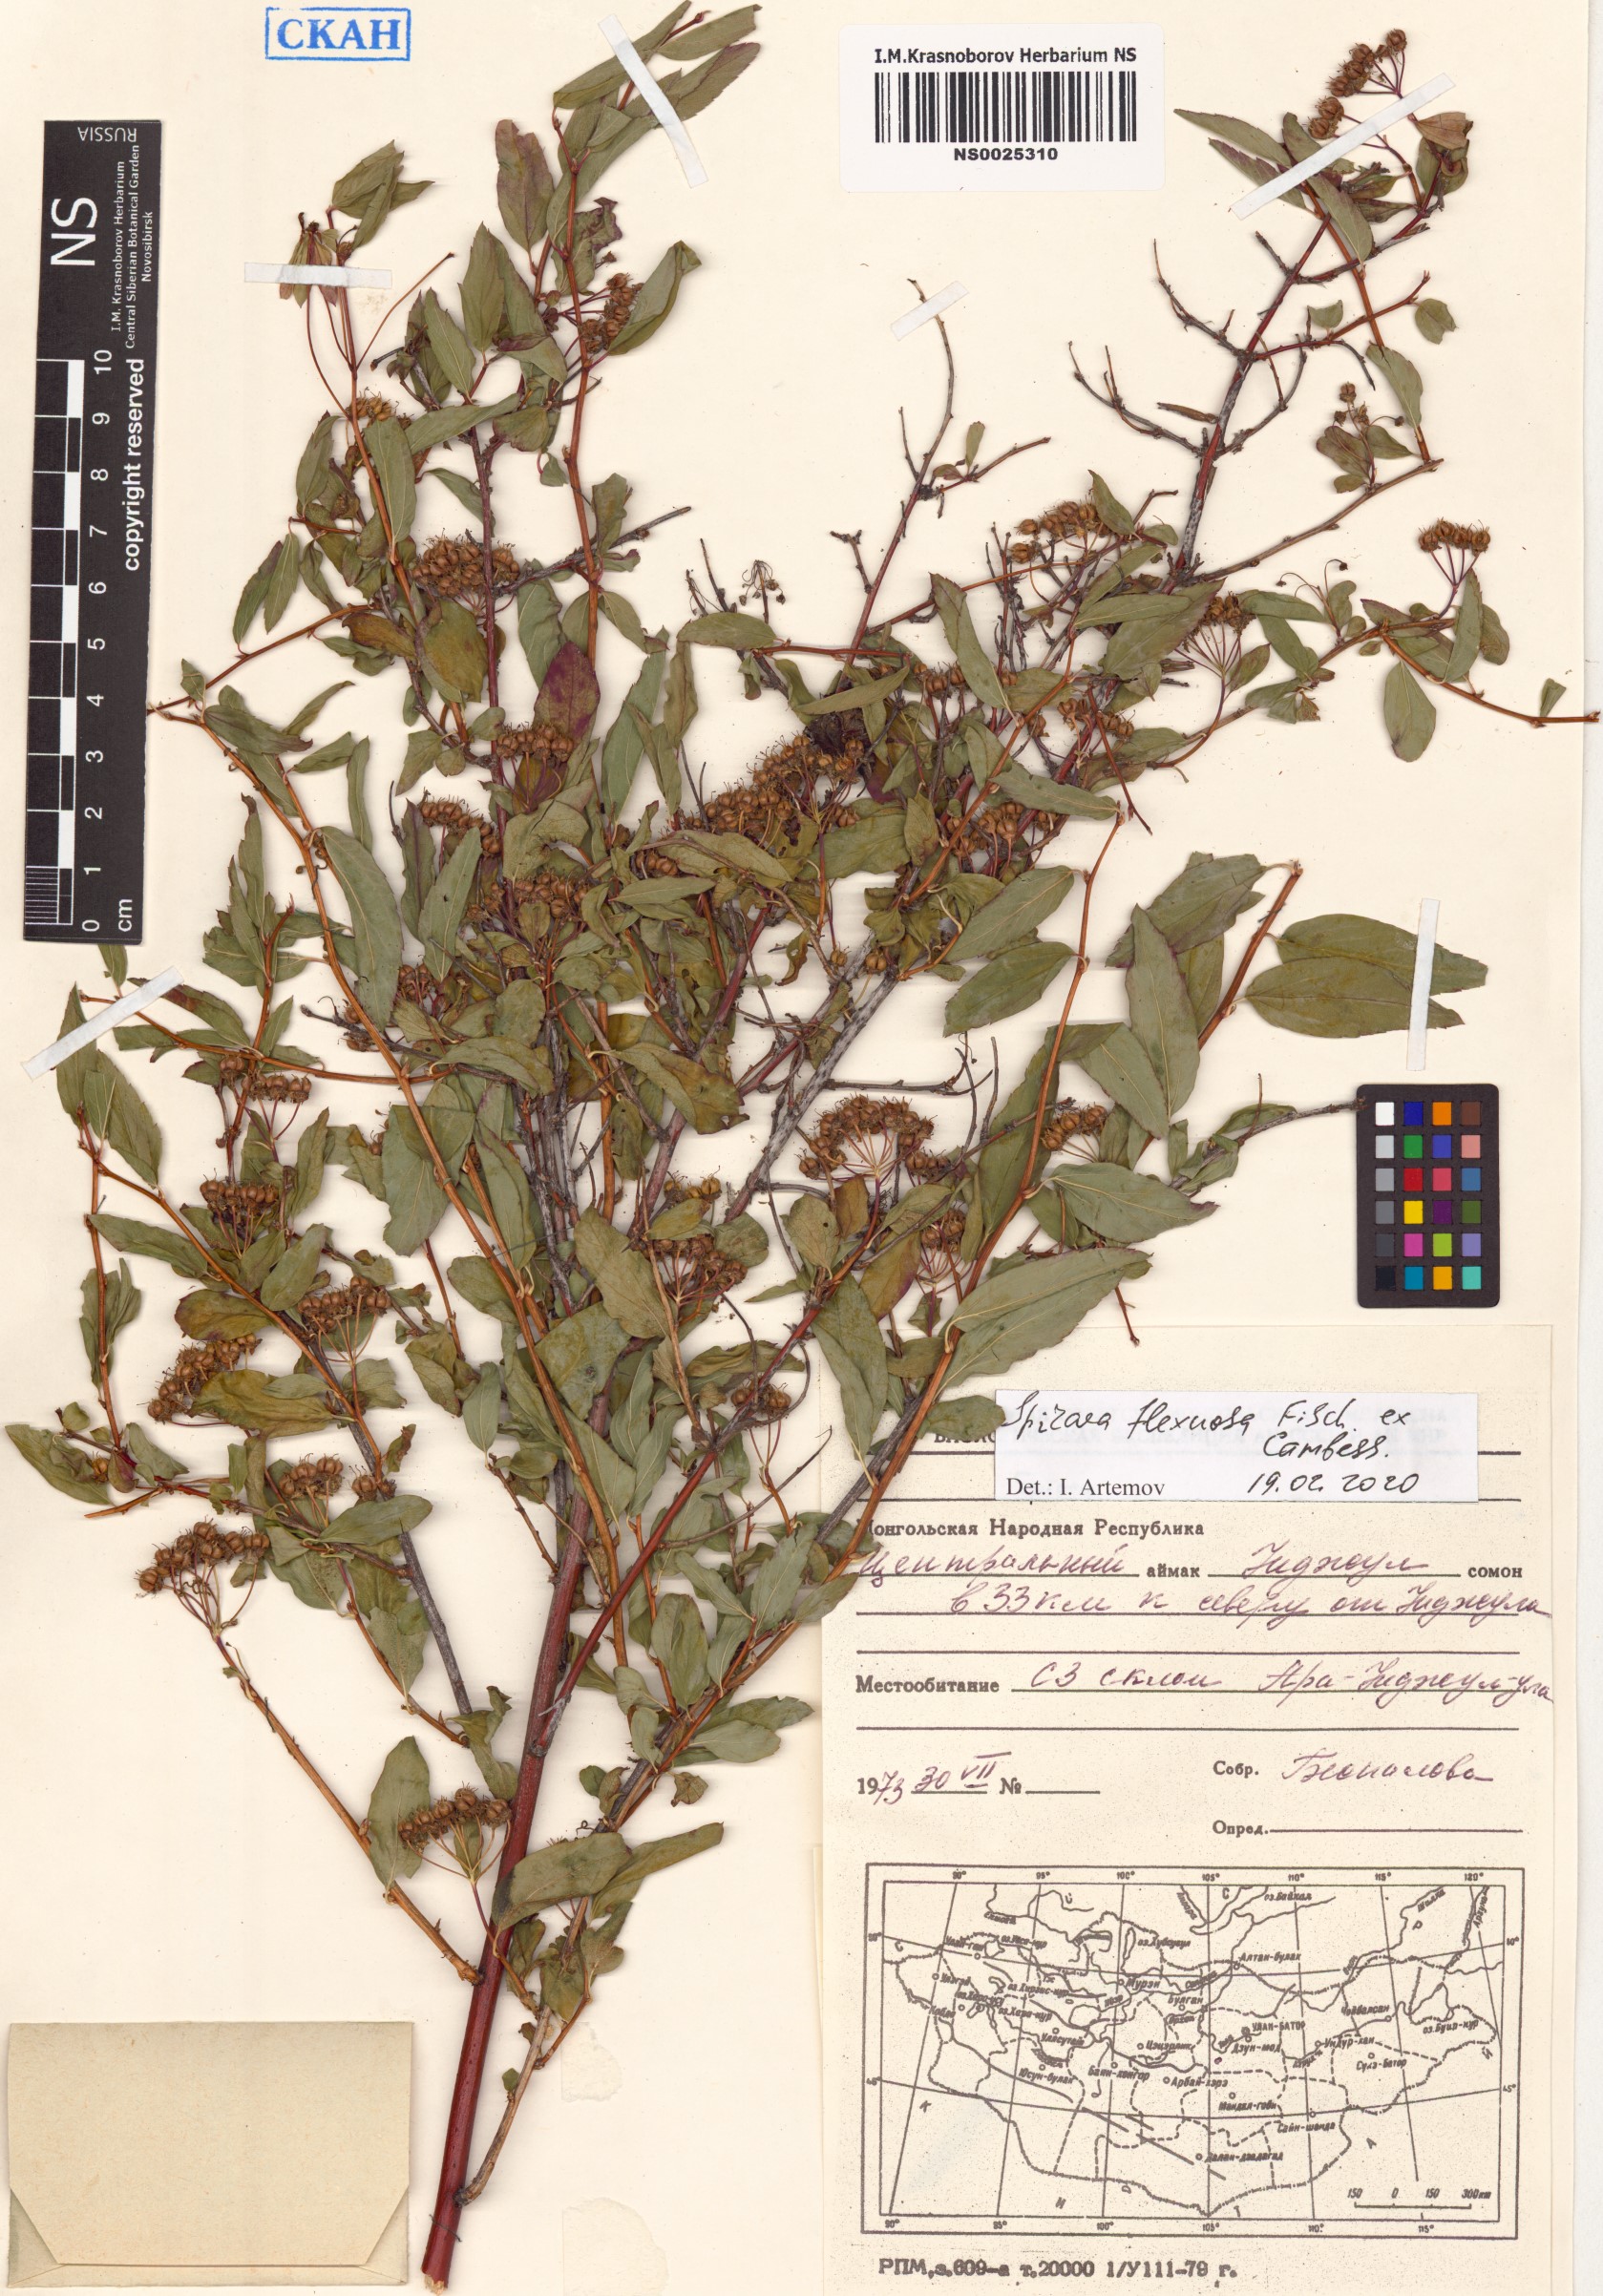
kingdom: Plantae
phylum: Tracheophyta
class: Magnoliopsida
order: Rosales
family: Rosaceae
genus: Spiraea
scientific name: Spiraea flexuosa
